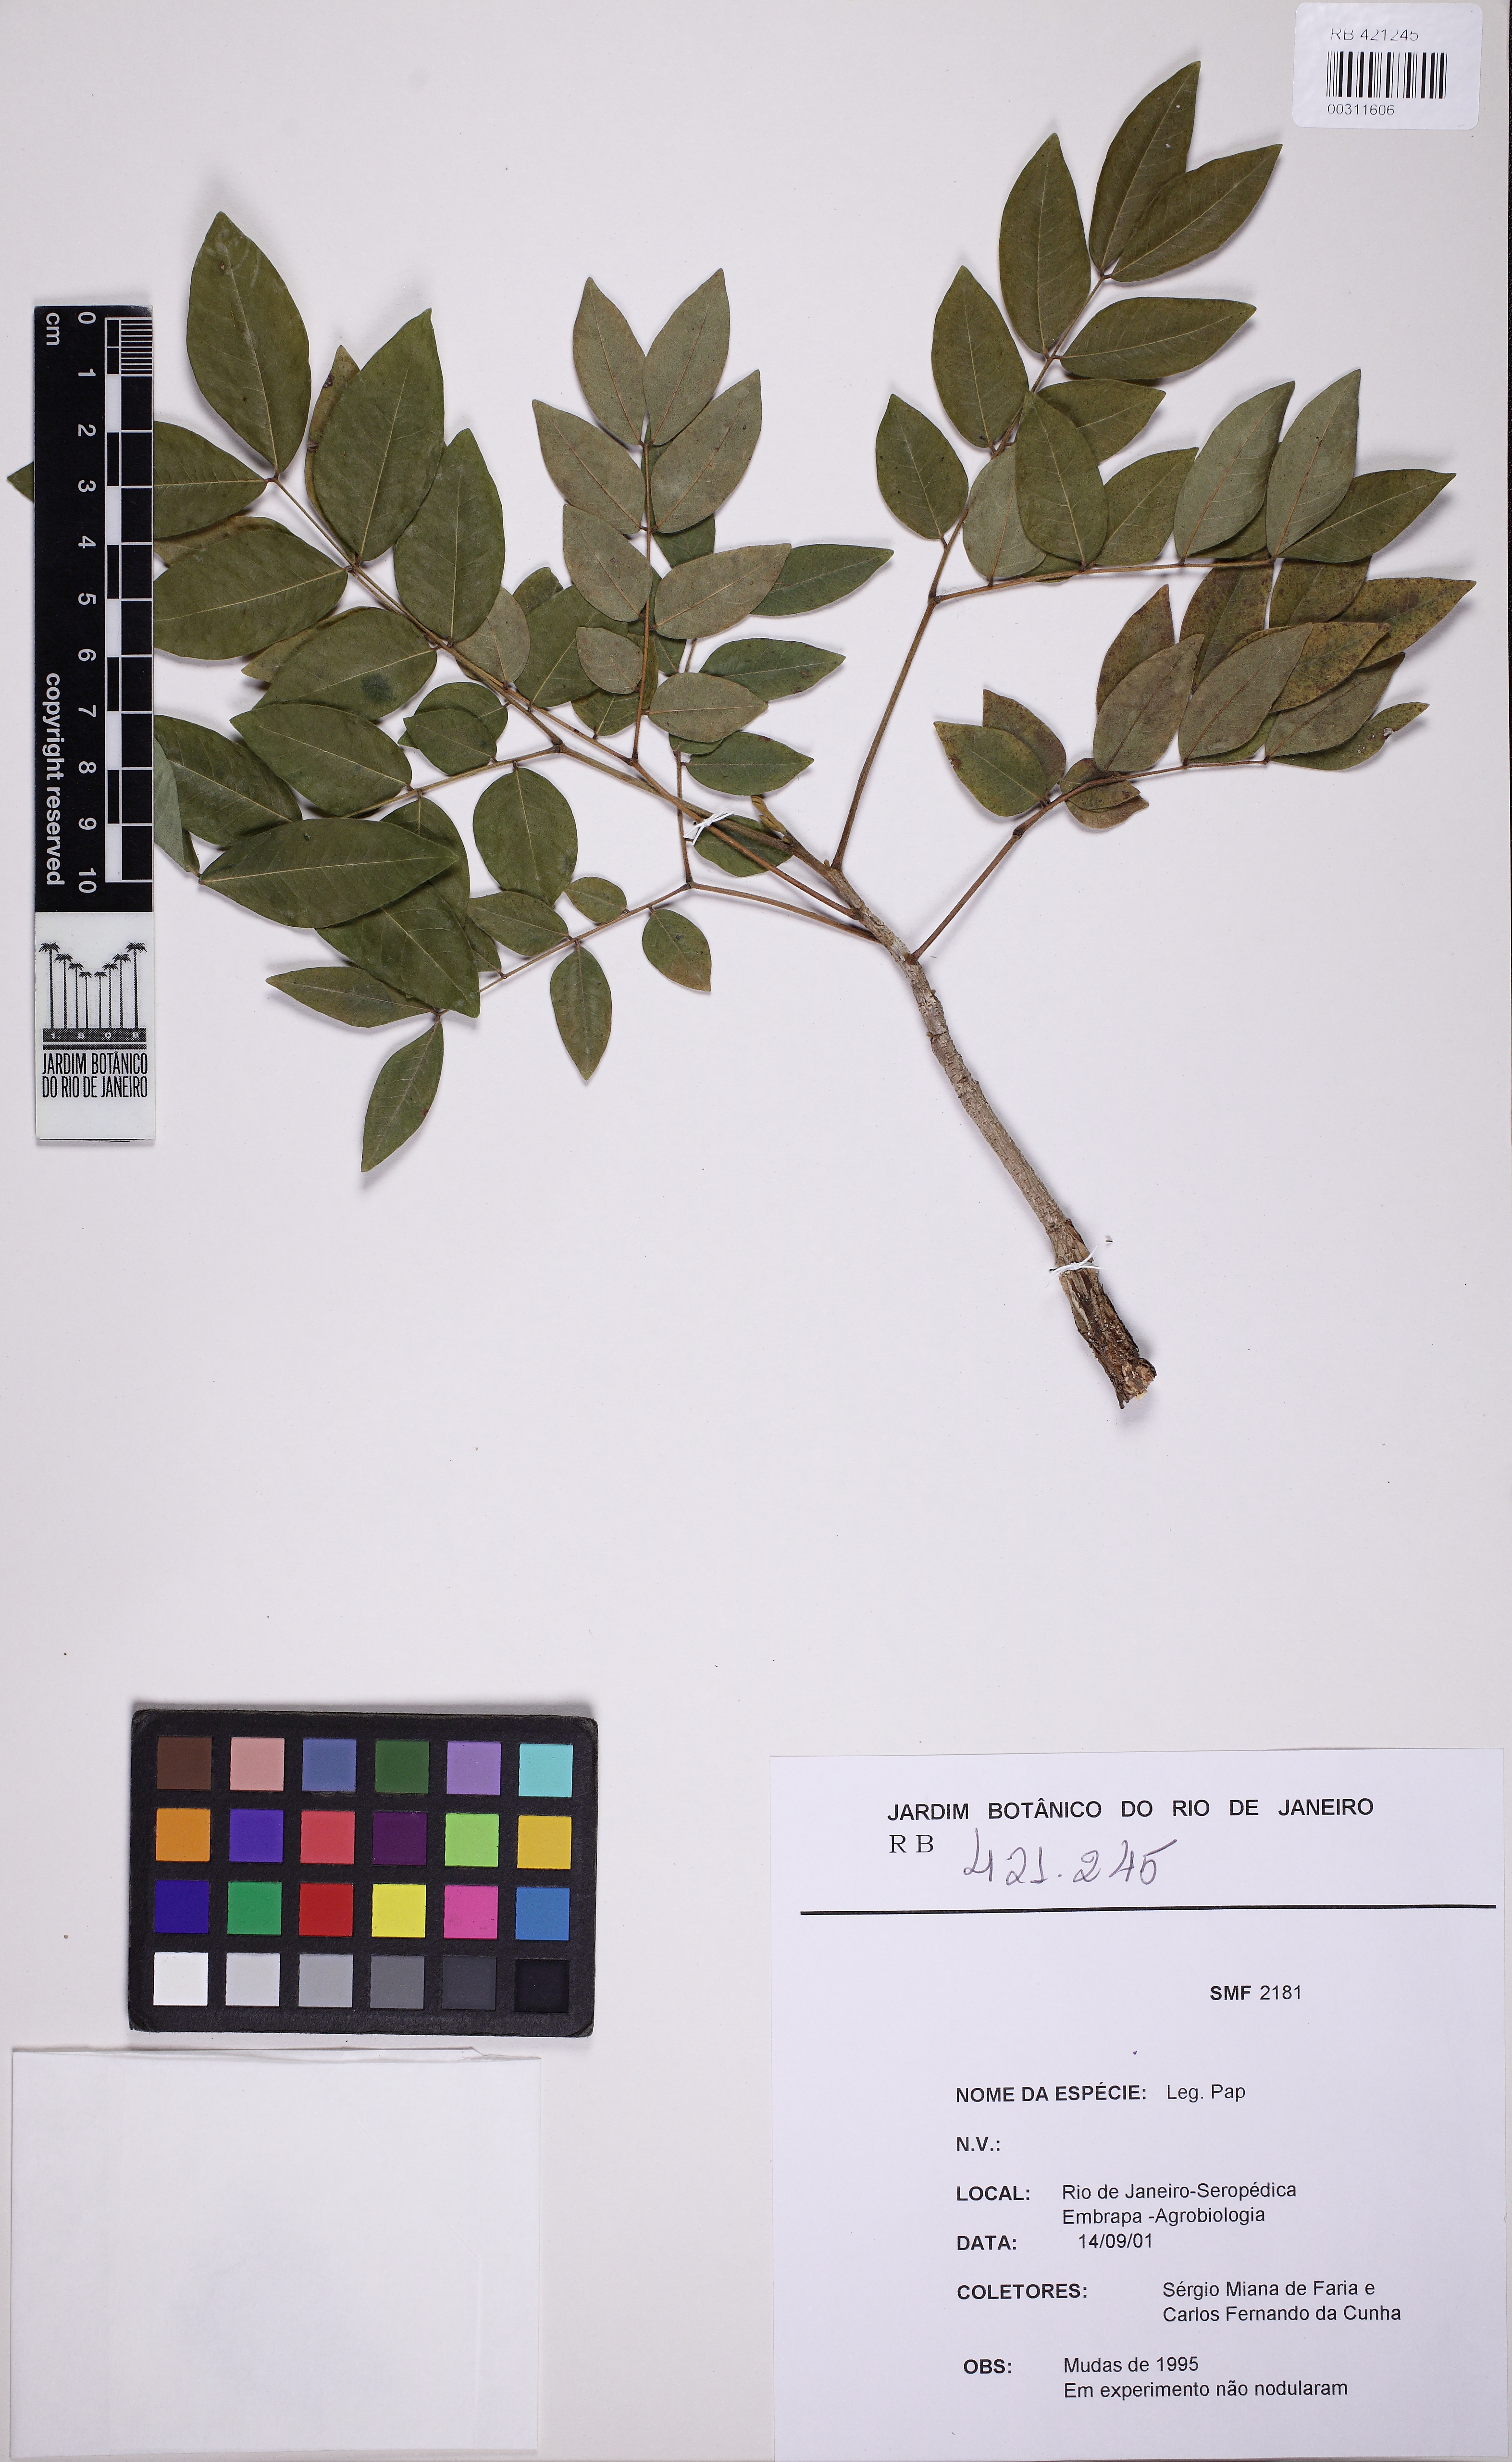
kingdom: Plantae
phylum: Tracheophyta
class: Magnoliopsida
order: Fabales
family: Fabaceae
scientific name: Fabaceae
